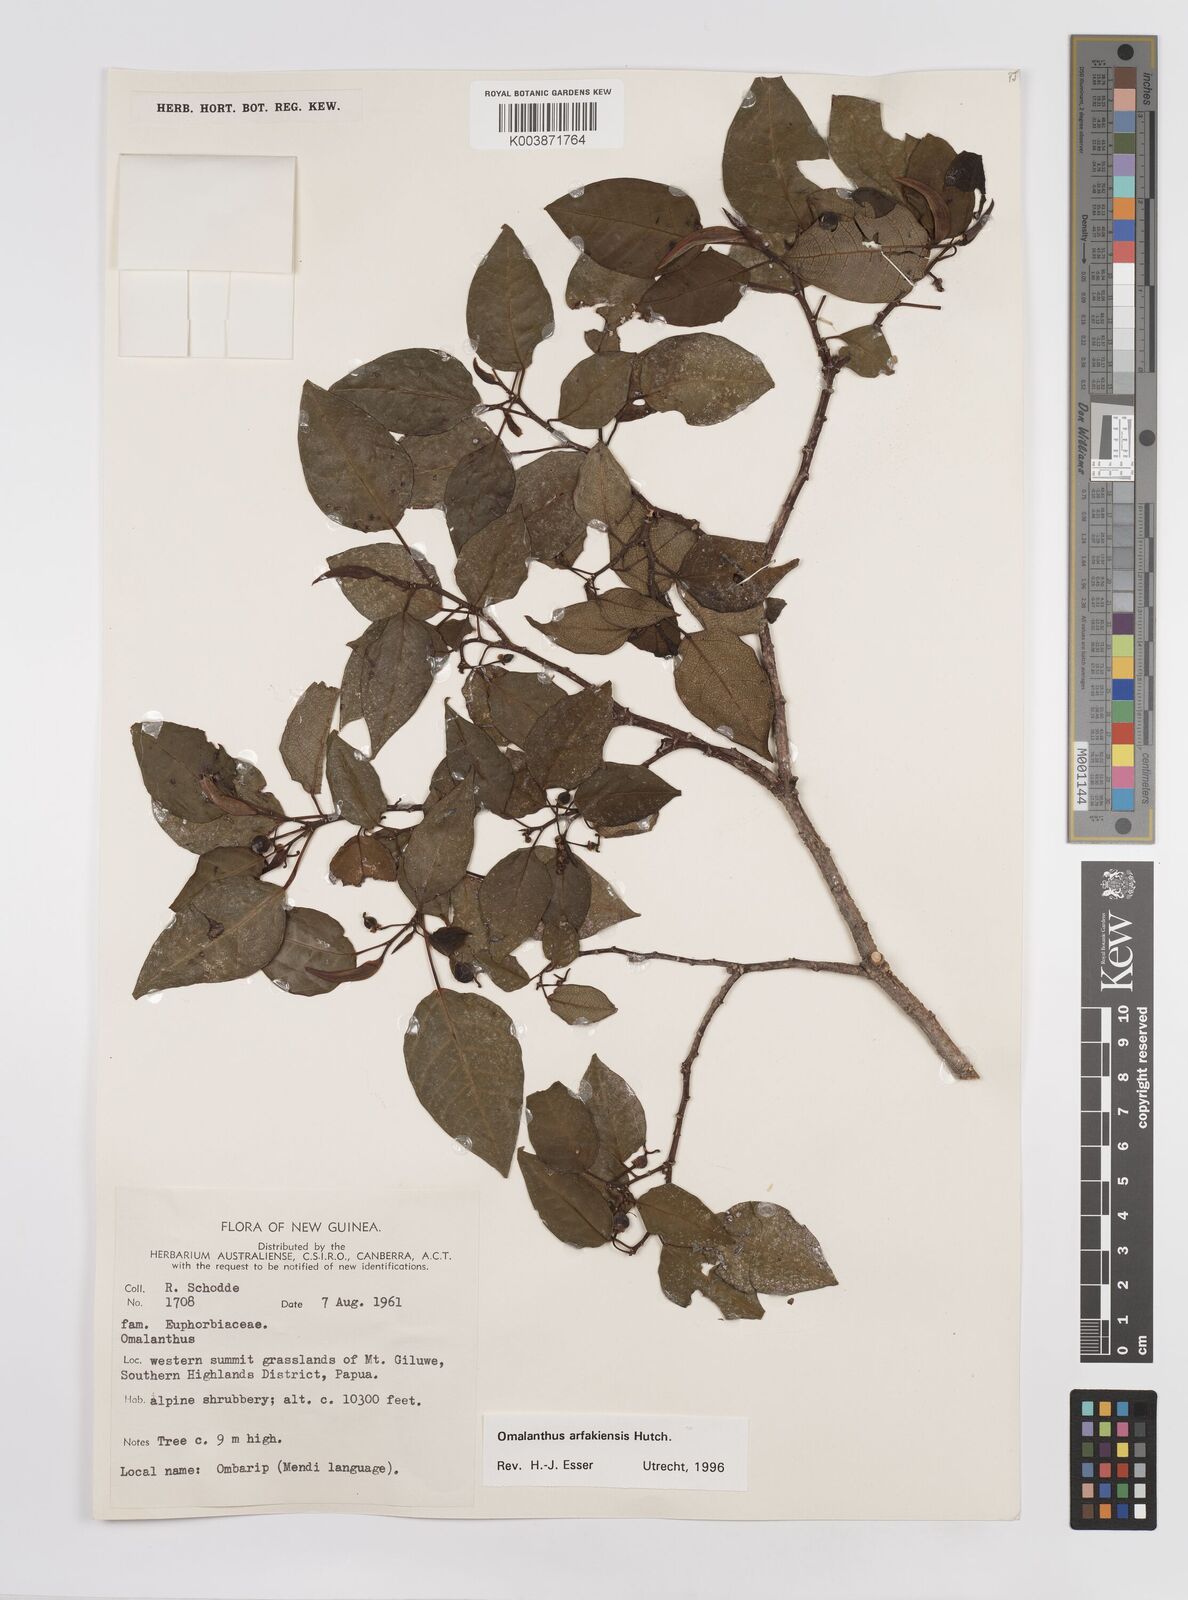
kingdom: Plantae
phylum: Tracheophyta
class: Magnoliopsida
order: Malpighiales
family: Euphorbiaceae
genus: Homalanthus
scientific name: Homalanthus arfakiensis
